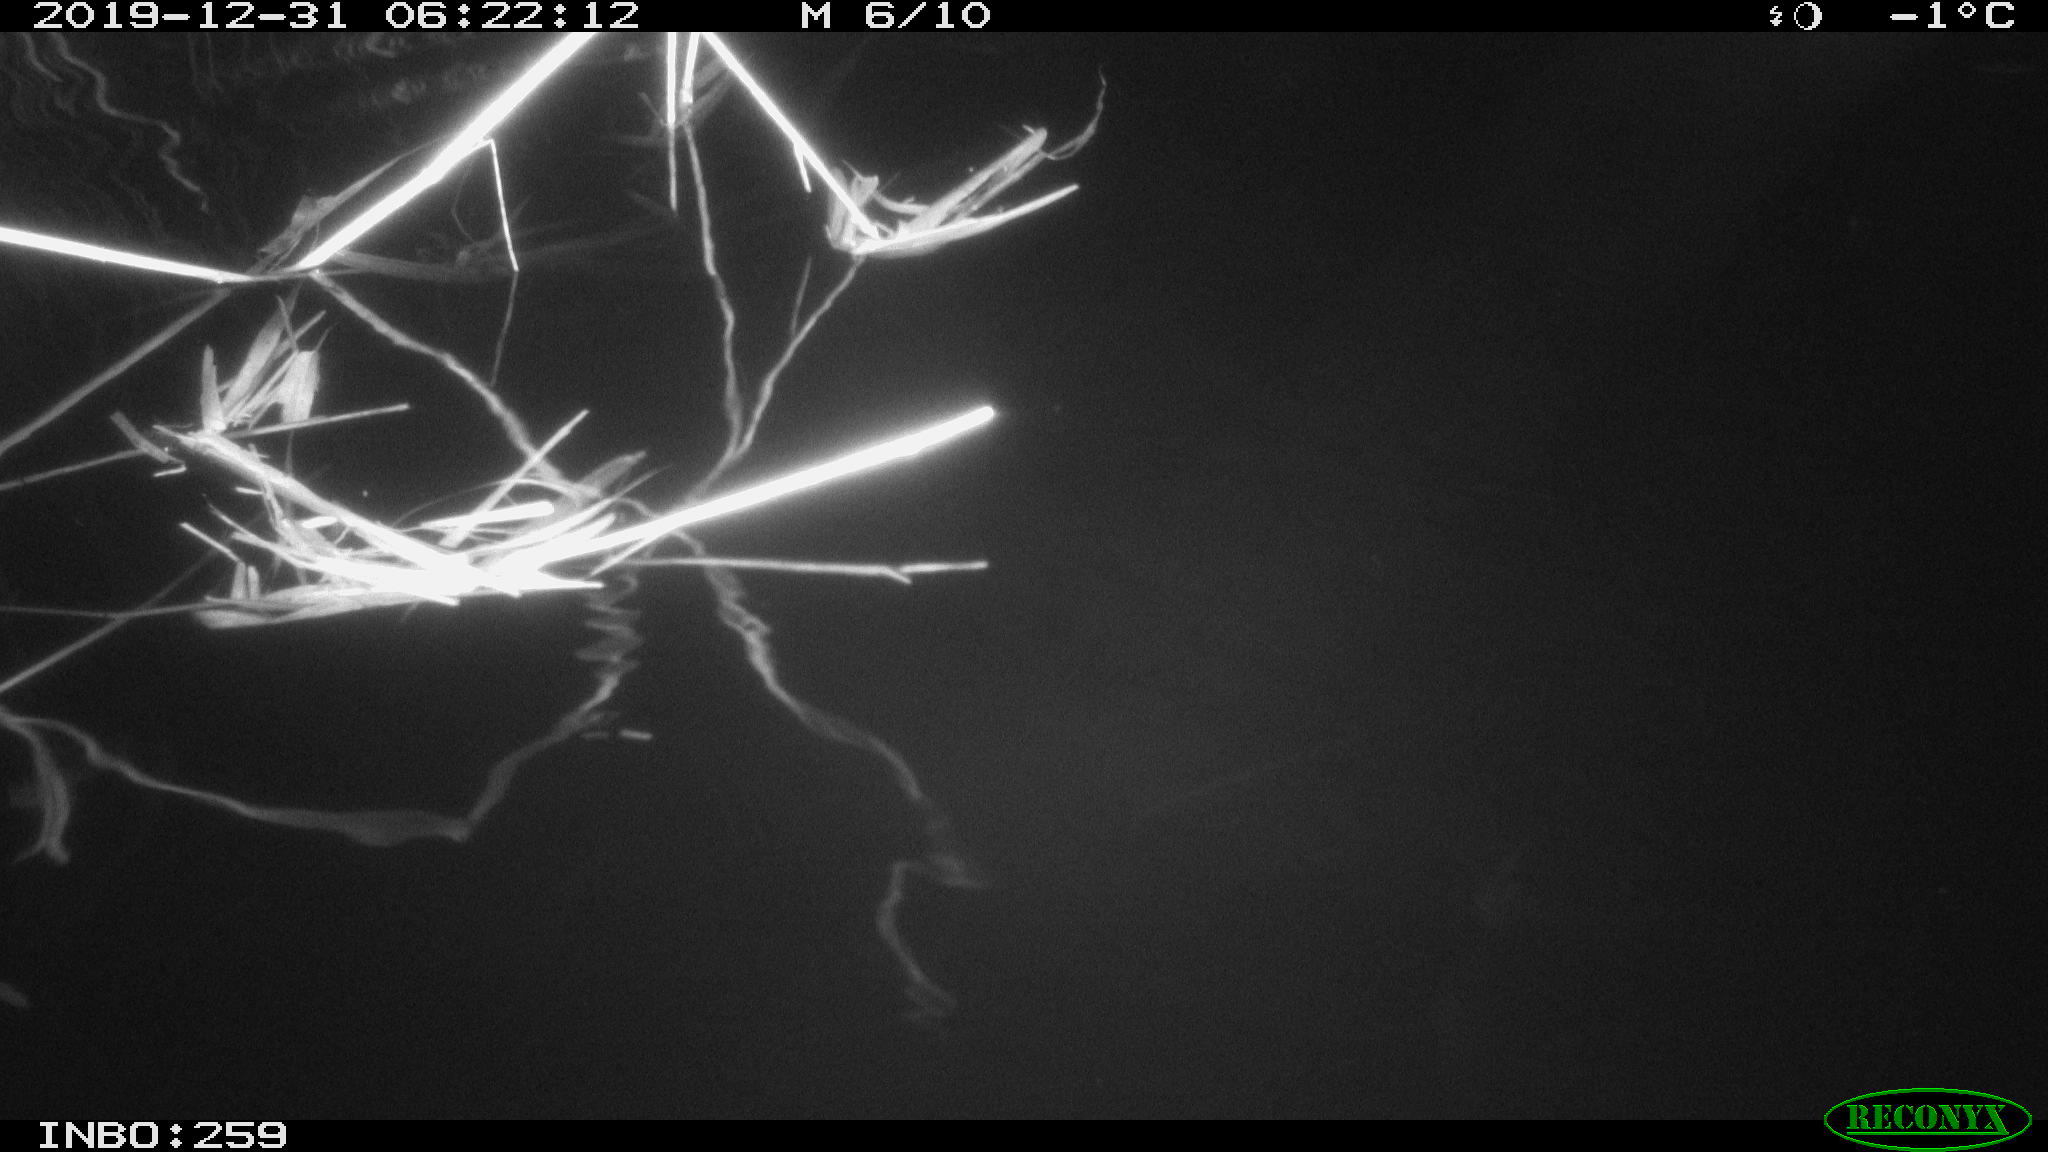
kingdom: Animalia
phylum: Chordata
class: Mammalia
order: Rodentia
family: Cricetidae
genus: Ondatra
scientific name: Ondatra zibethicus
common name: Muskrat
